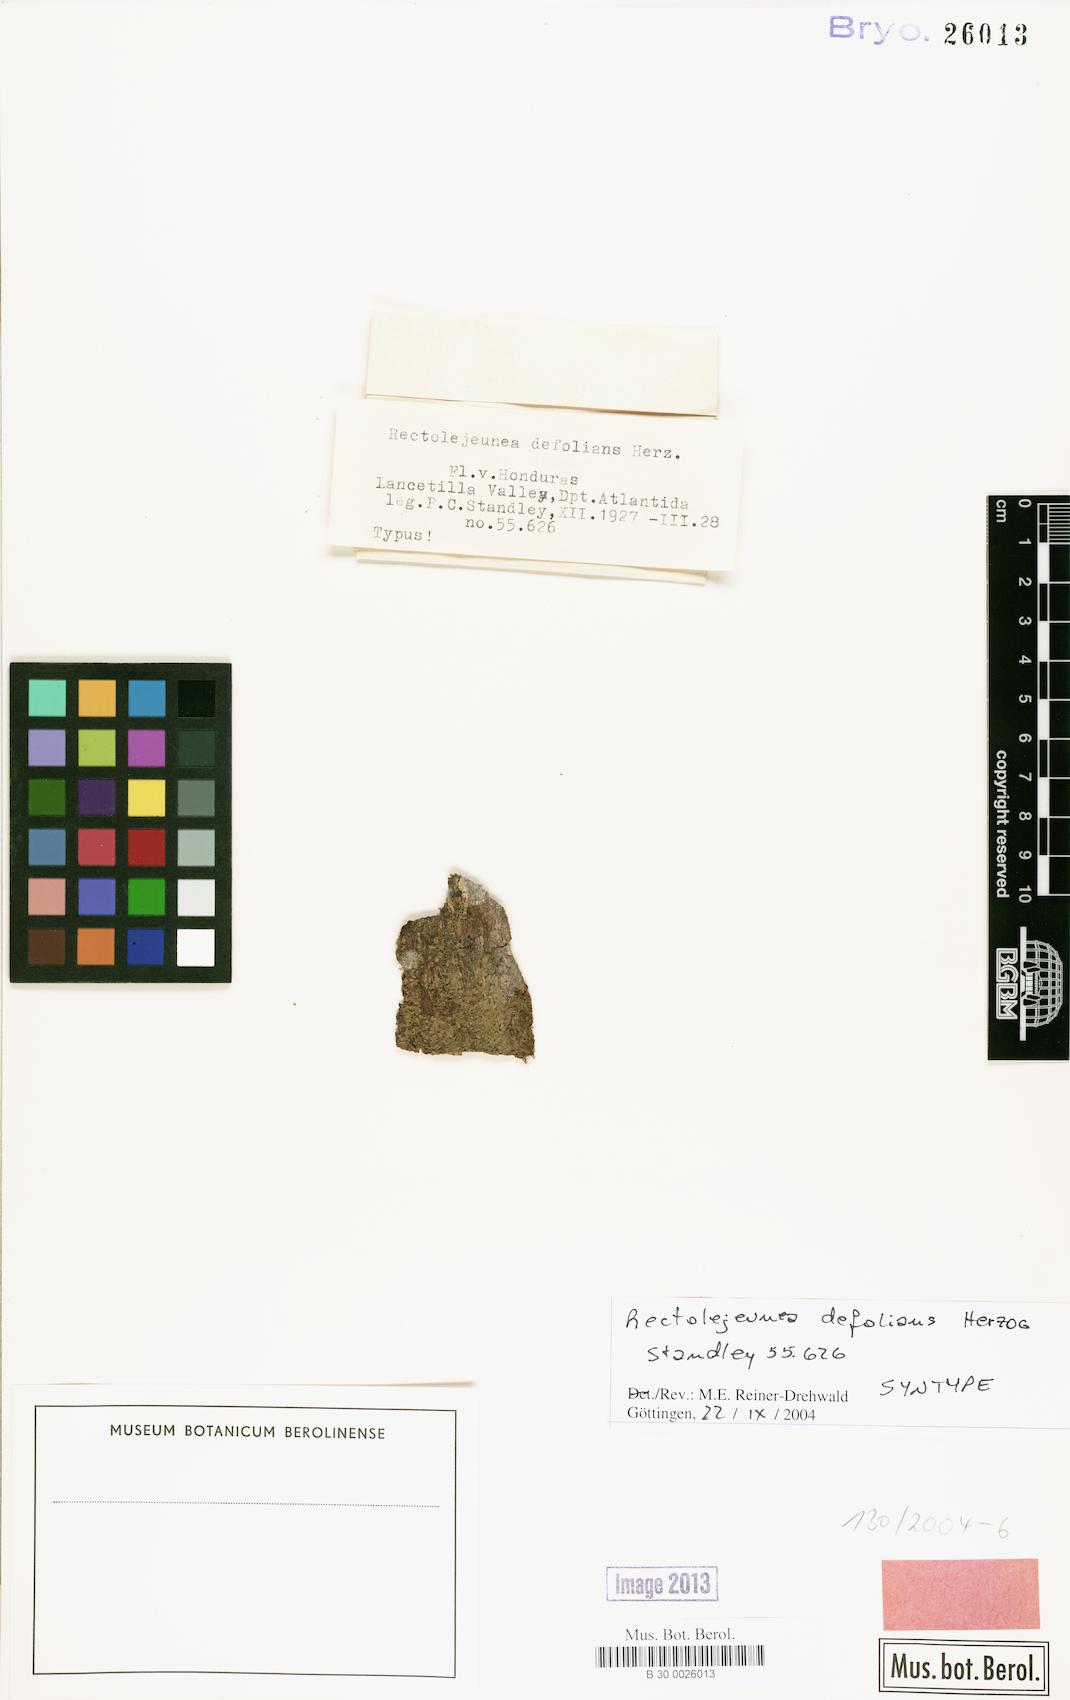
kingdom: Plantae
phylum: Marchantiophyta
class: Jungermanniopsida
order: Porellales
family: Lejeuneaceae
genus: Lejeunea
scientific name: Lejeunea parviloba
